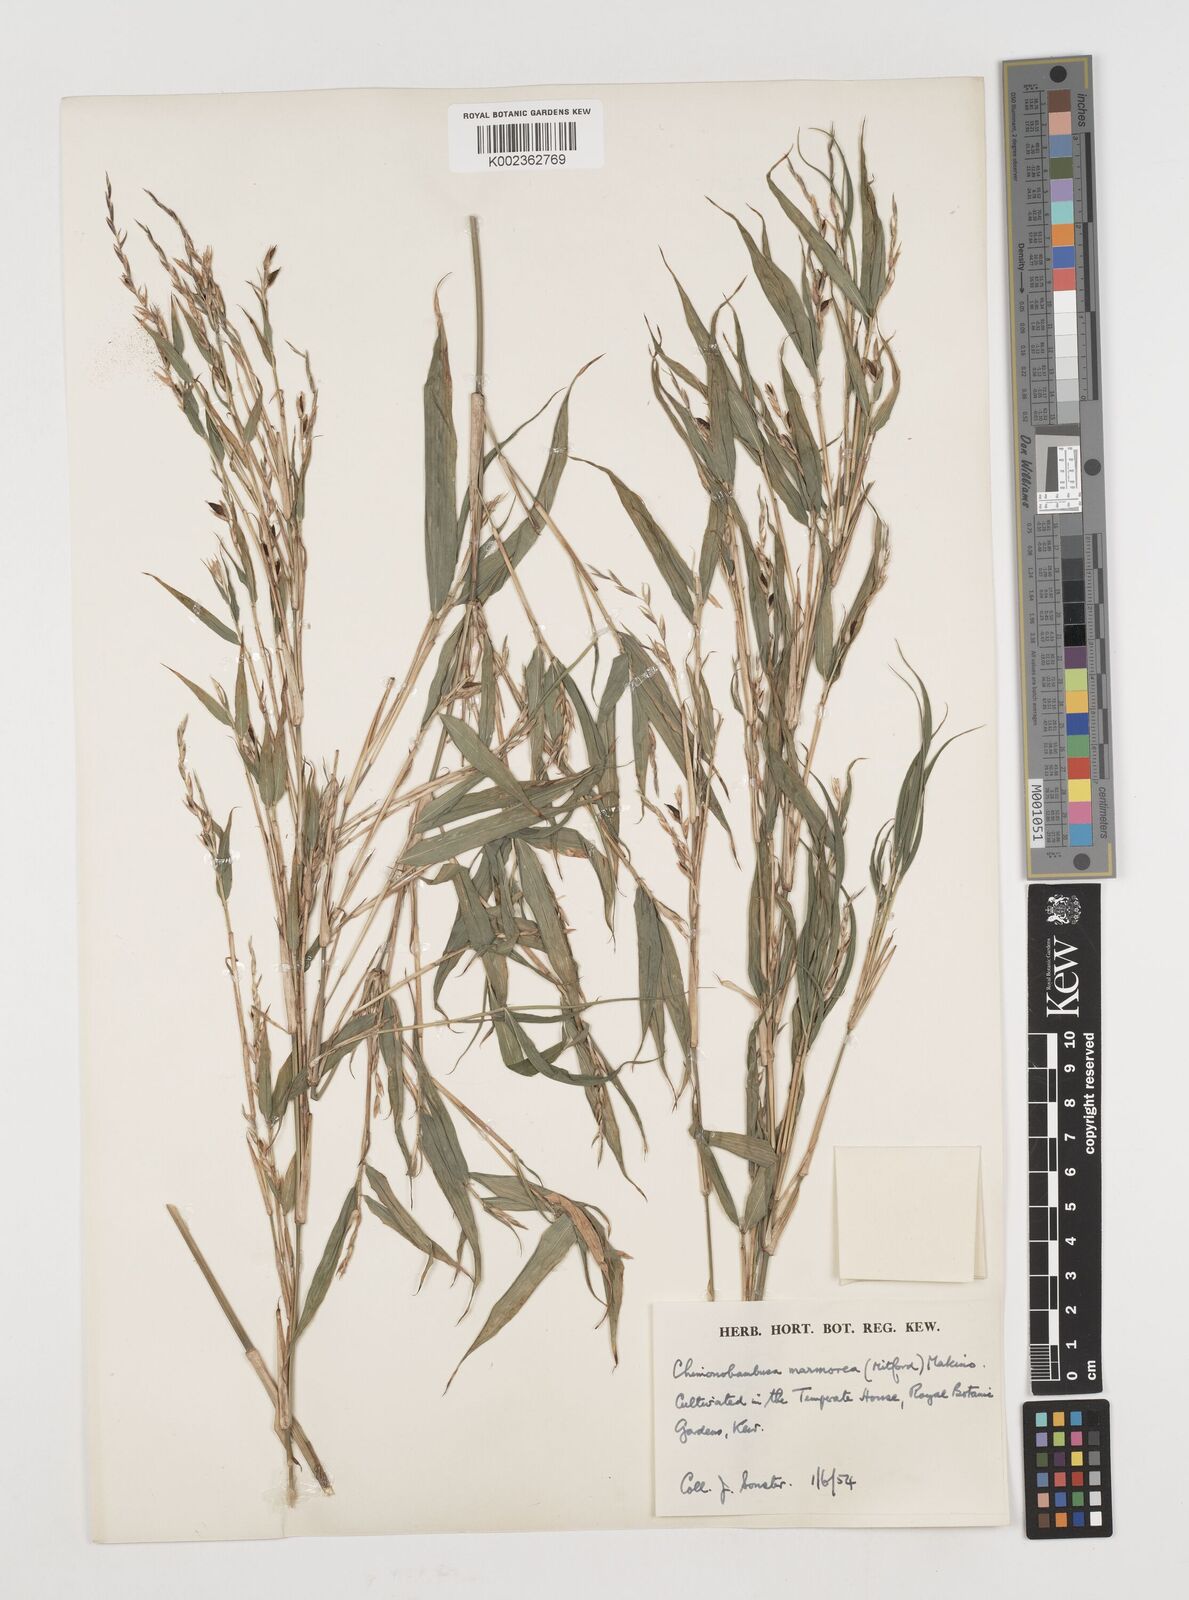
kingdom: Plantae
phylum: Tracheophyta
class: Liliopsida
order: Poales
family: Poaceae
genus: Chimonobambusa
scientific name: Chimonobambusa marmorea
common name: Marbled bamboo
